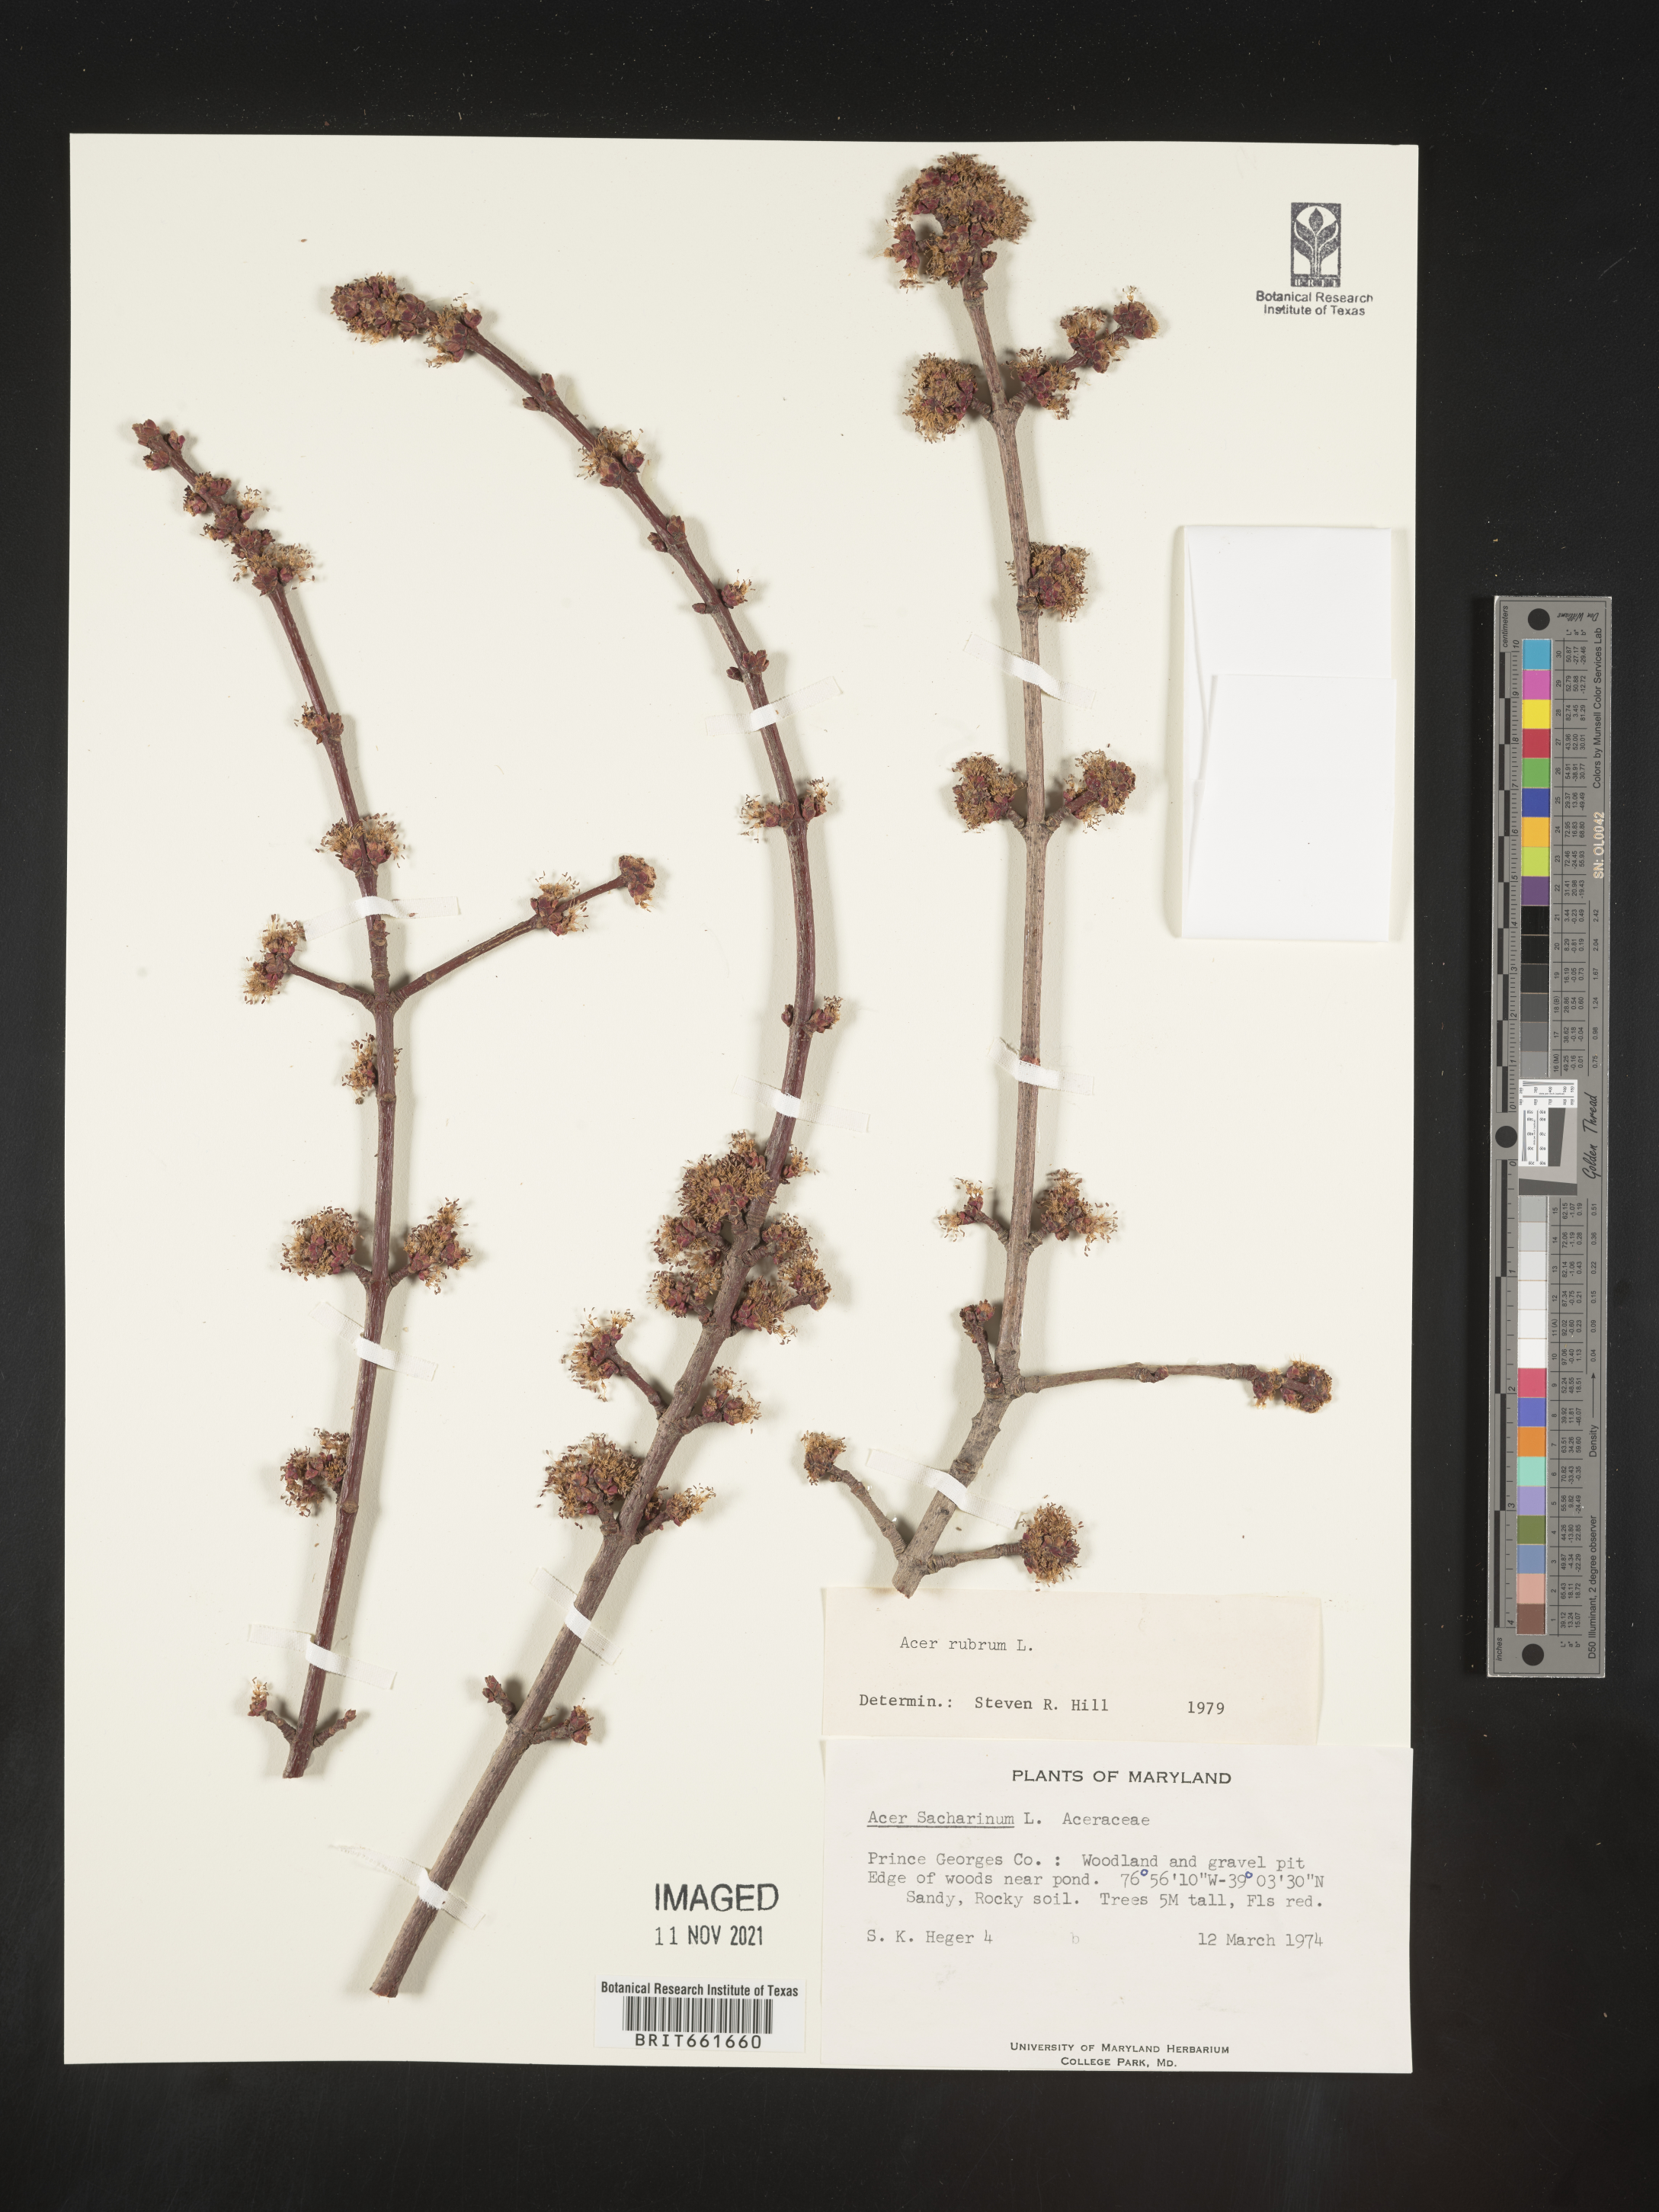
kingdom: Plantae
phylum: Tracheophyta
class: Magnoliopsida
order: Sapindales
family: Sapindaceae
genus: Acer
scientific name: Acer rubrum
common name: Red maple
